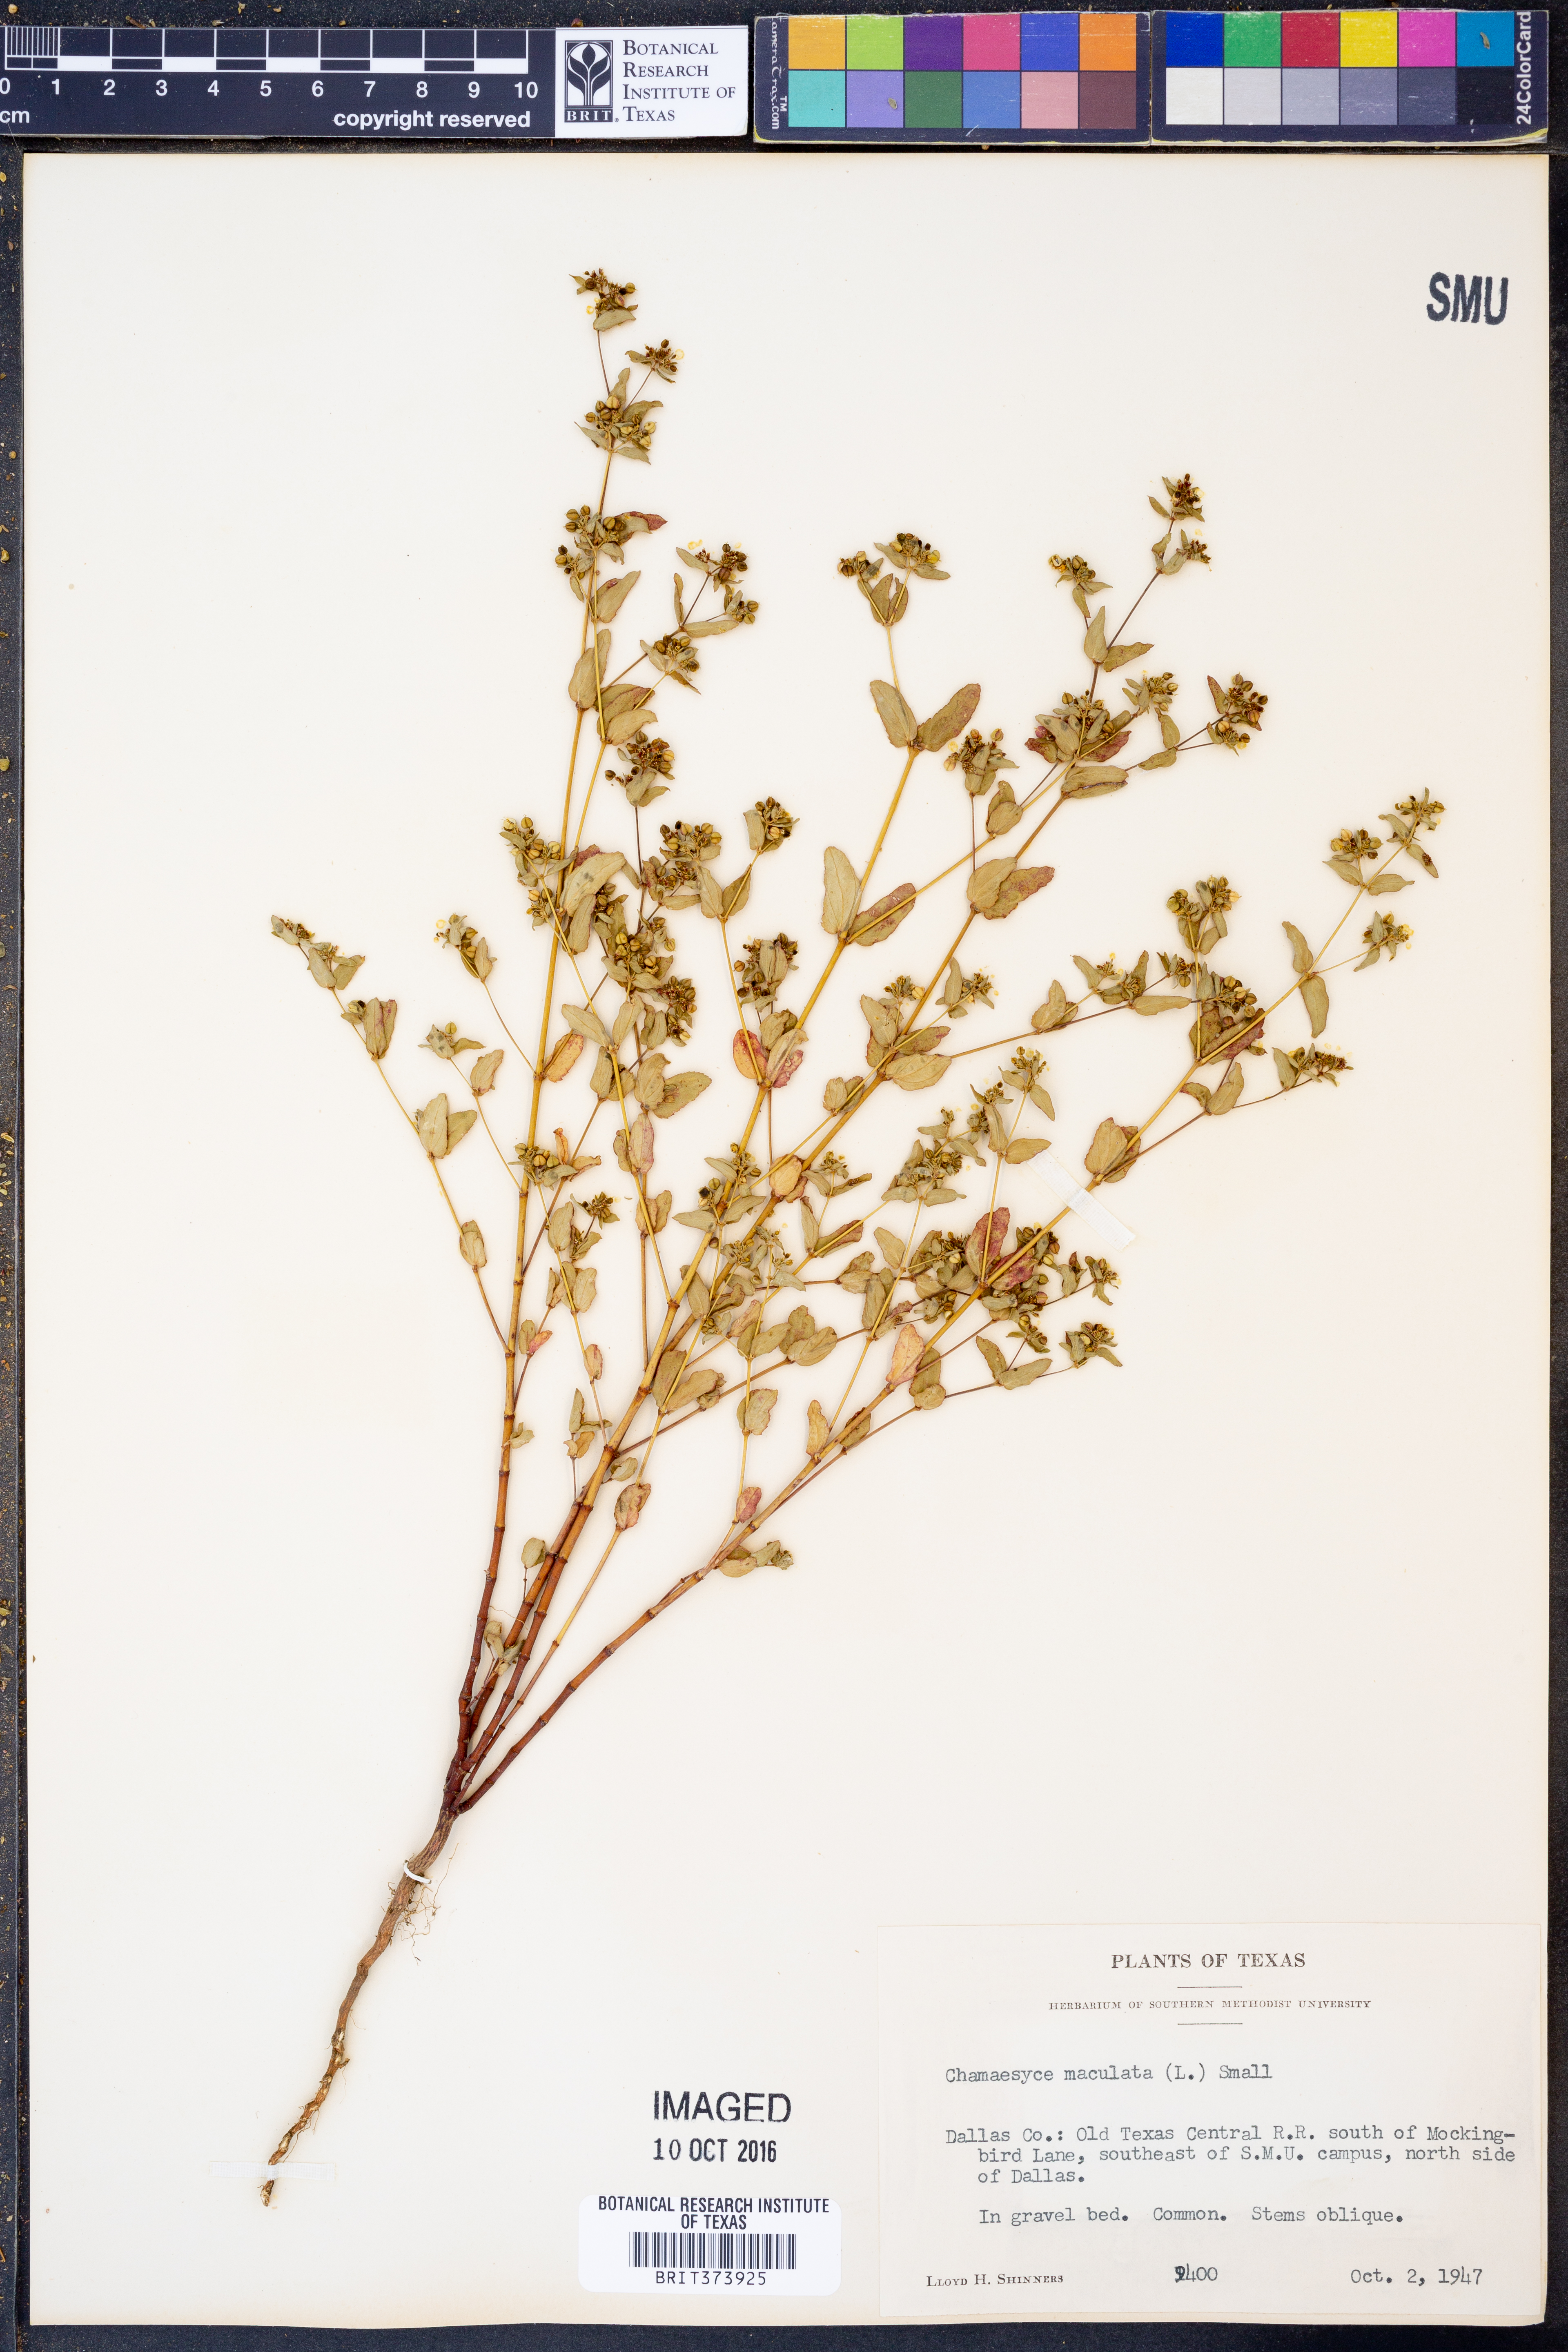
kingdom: Plantae
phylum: Tracheophyta
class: Magnoliopsida
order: Malpighiales
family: Euphorbiaceae
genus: Euphorbia
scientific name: Euphorbia maculata
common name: Spotted spurge
